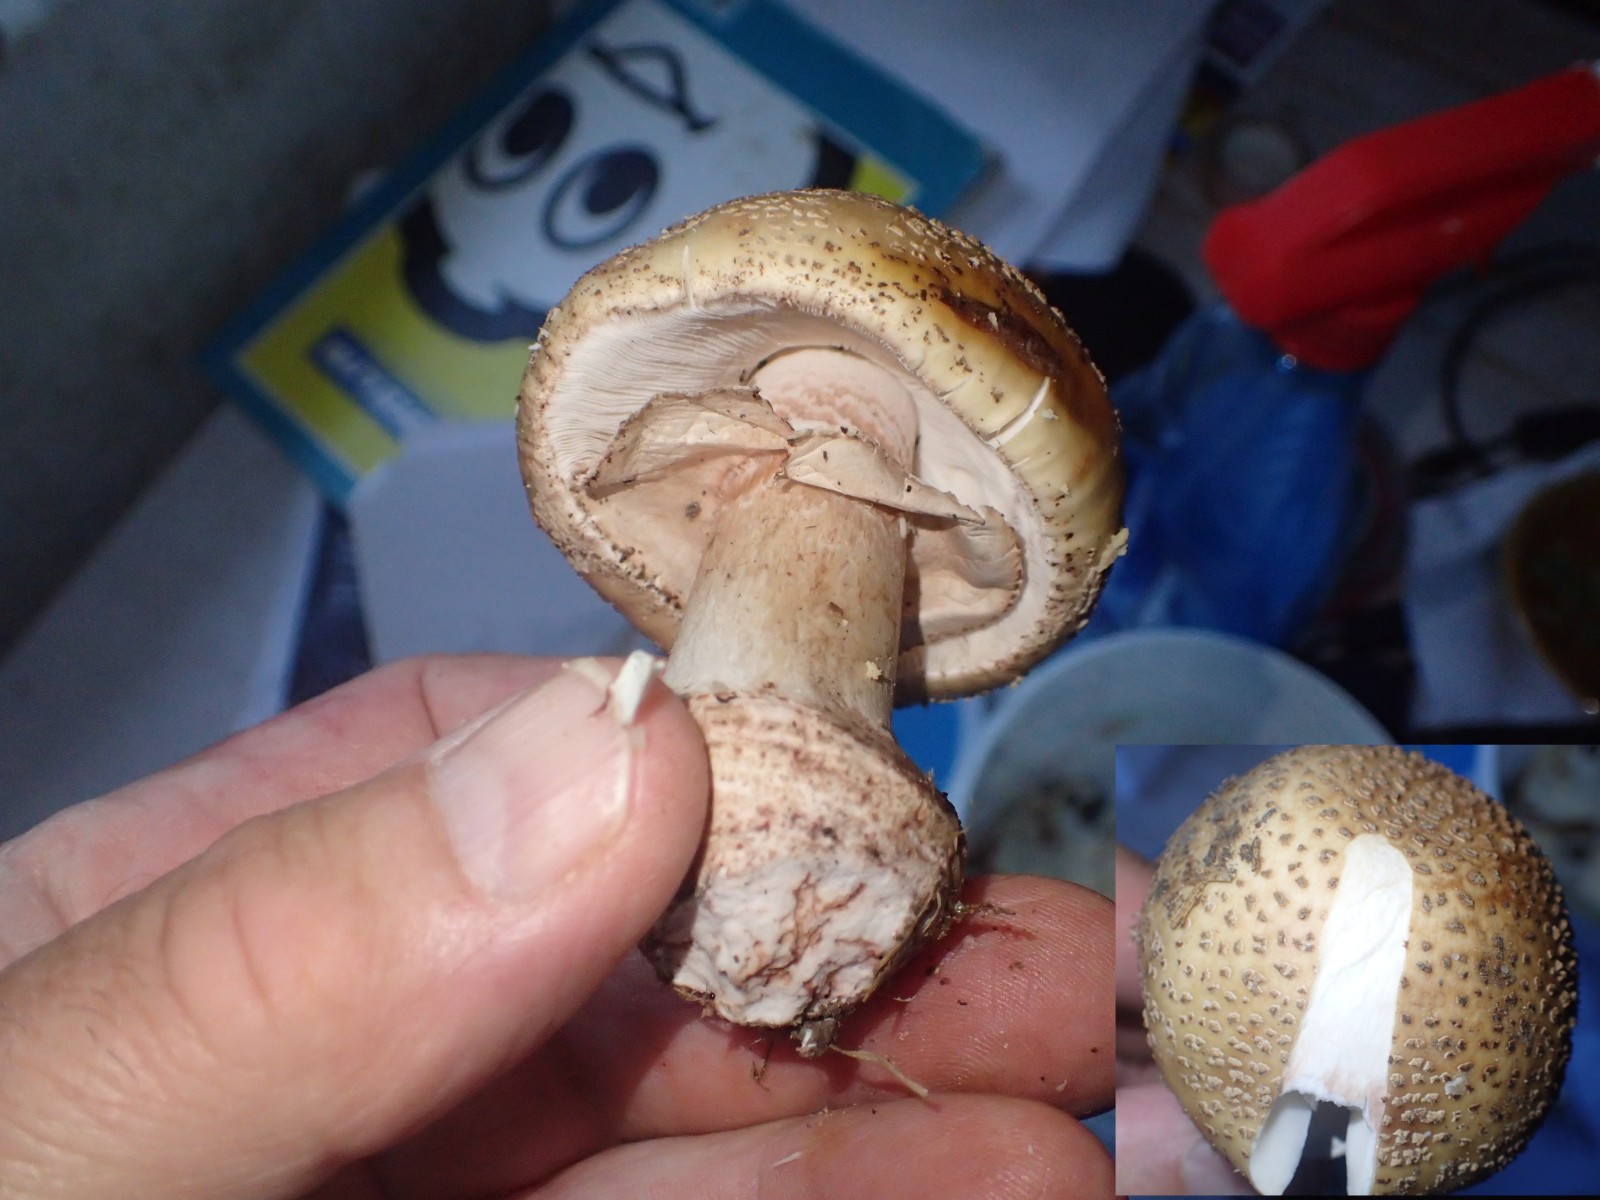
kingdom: Fungi
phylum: Basidiomycota
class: Agaricomycetes
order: Agaricales
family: Amanitaceae
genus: Amanita
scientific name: Amanita rubescens
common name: rødmende fluesvamp
